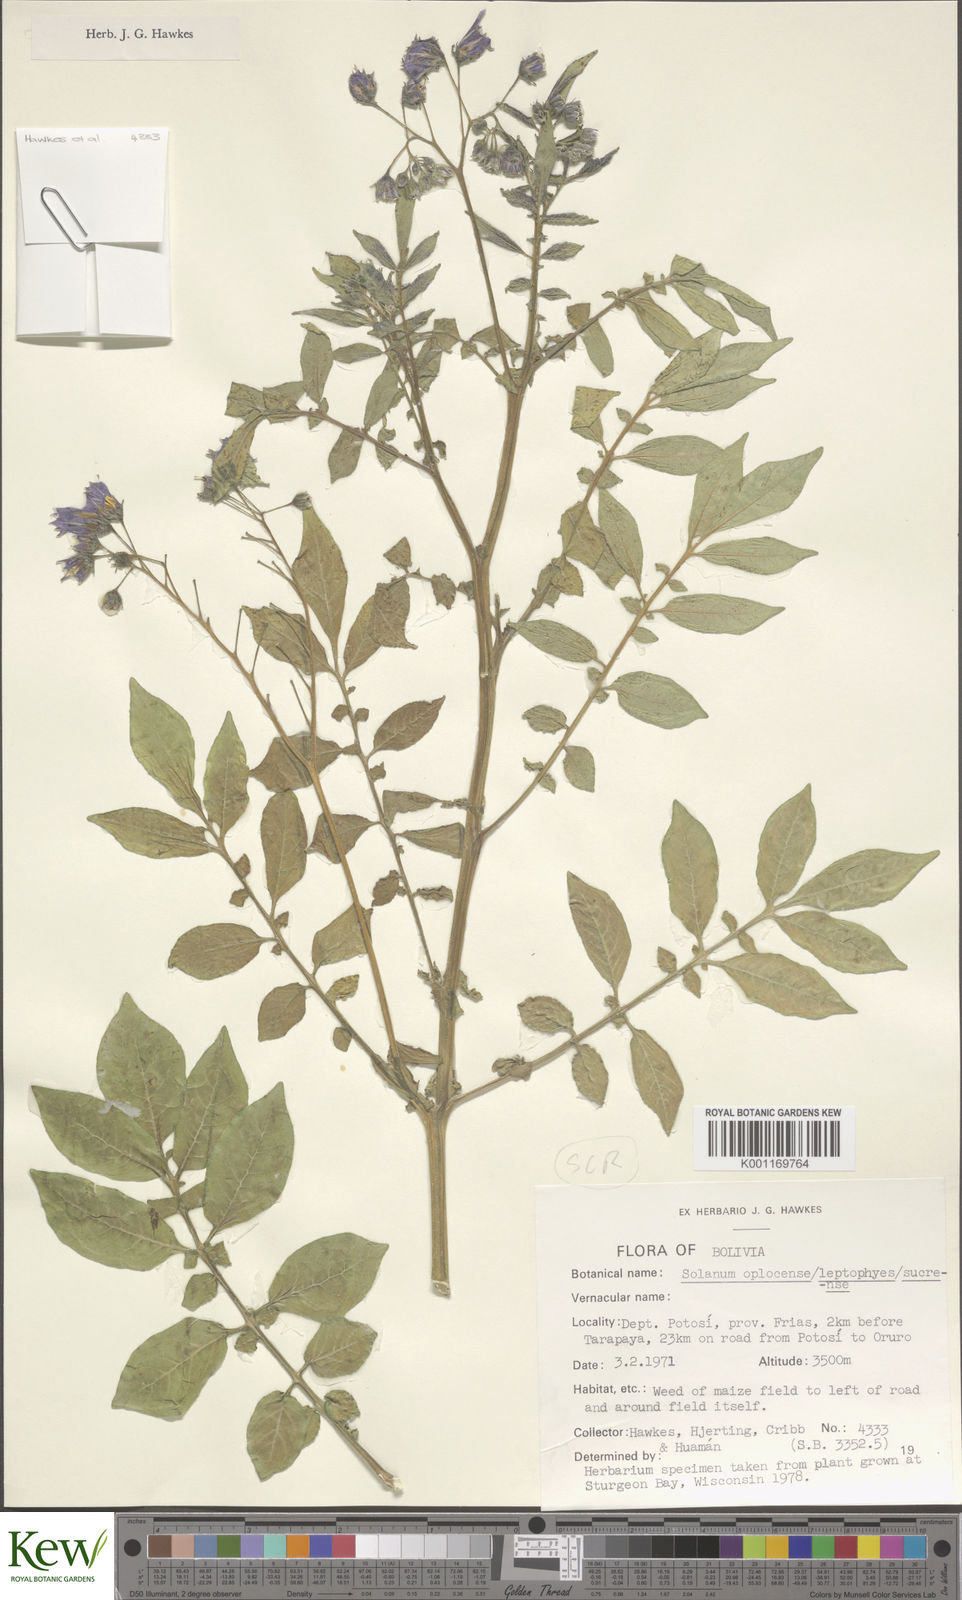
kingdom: Plantae
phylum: Tracheophyta
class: Magnoliopsida
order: Solanales
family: Solanaceae
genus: Solanum
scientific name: Solanum brevicaule
